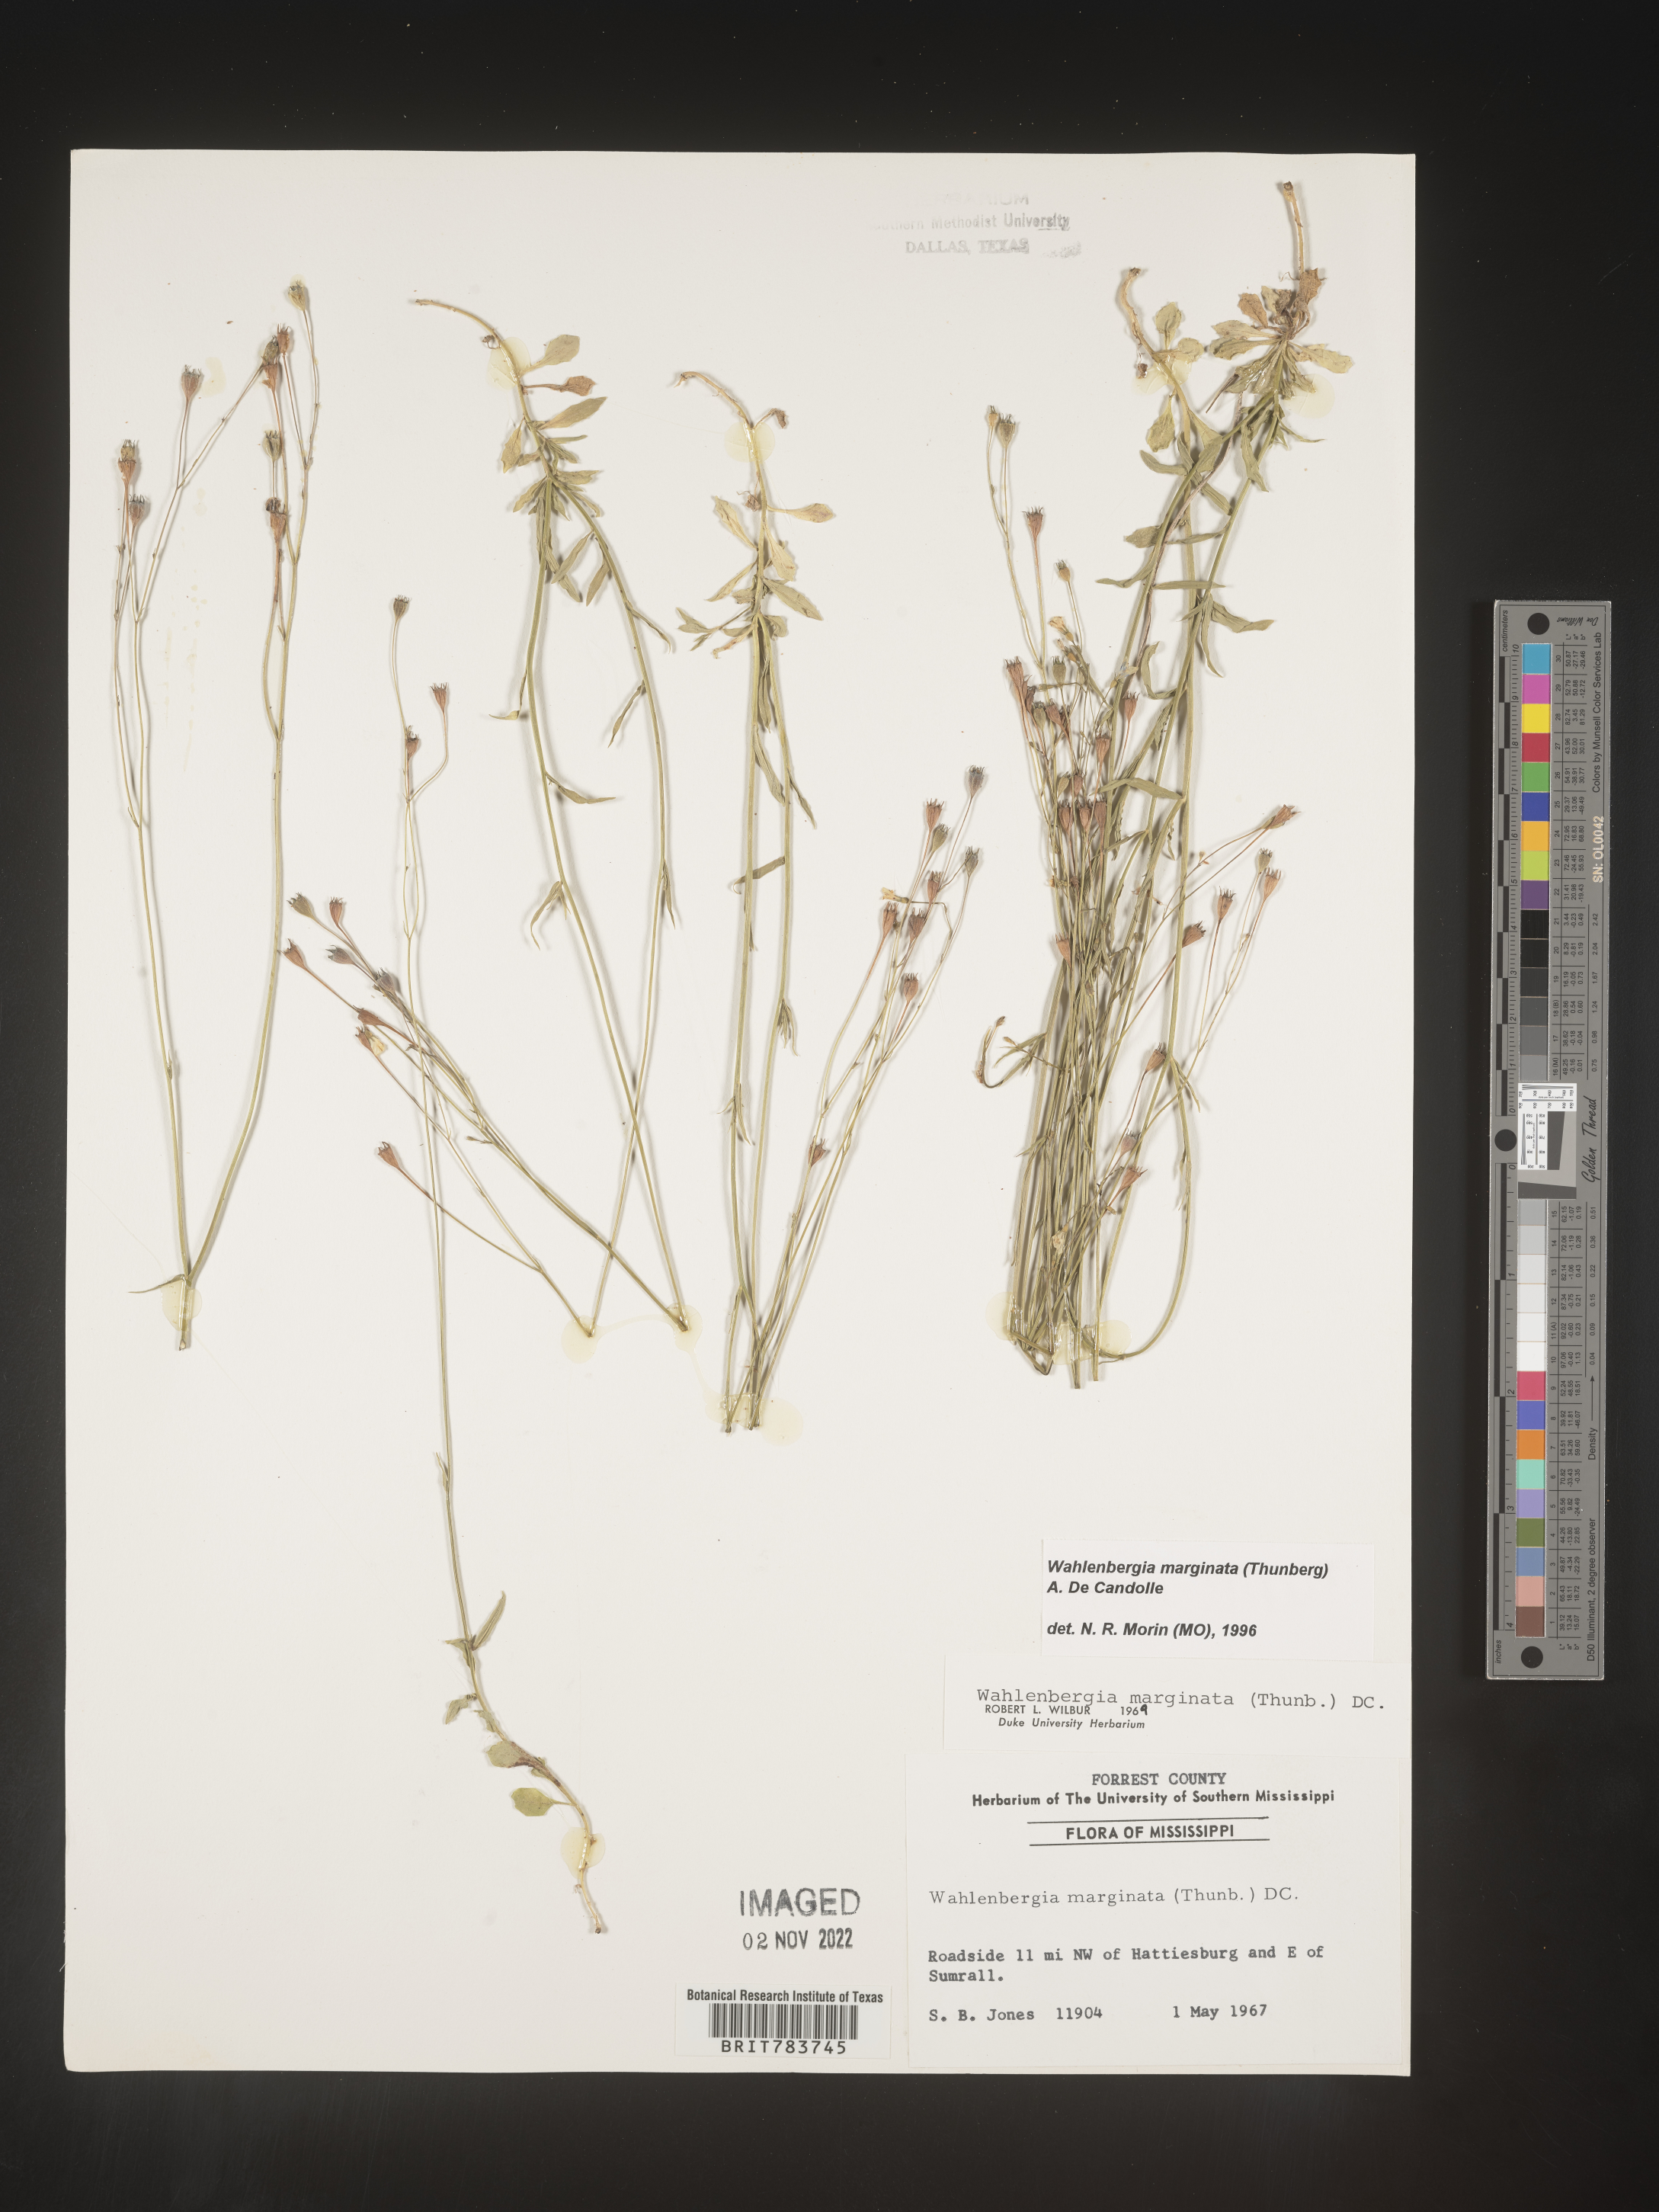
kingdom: Plantae
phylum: Tracheophyta
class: Magnoliopsida
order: Asterales
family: Campanulaceae
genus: Wahlenbergia
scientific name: Wahlenbergia marginata
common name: Southern rockbell
